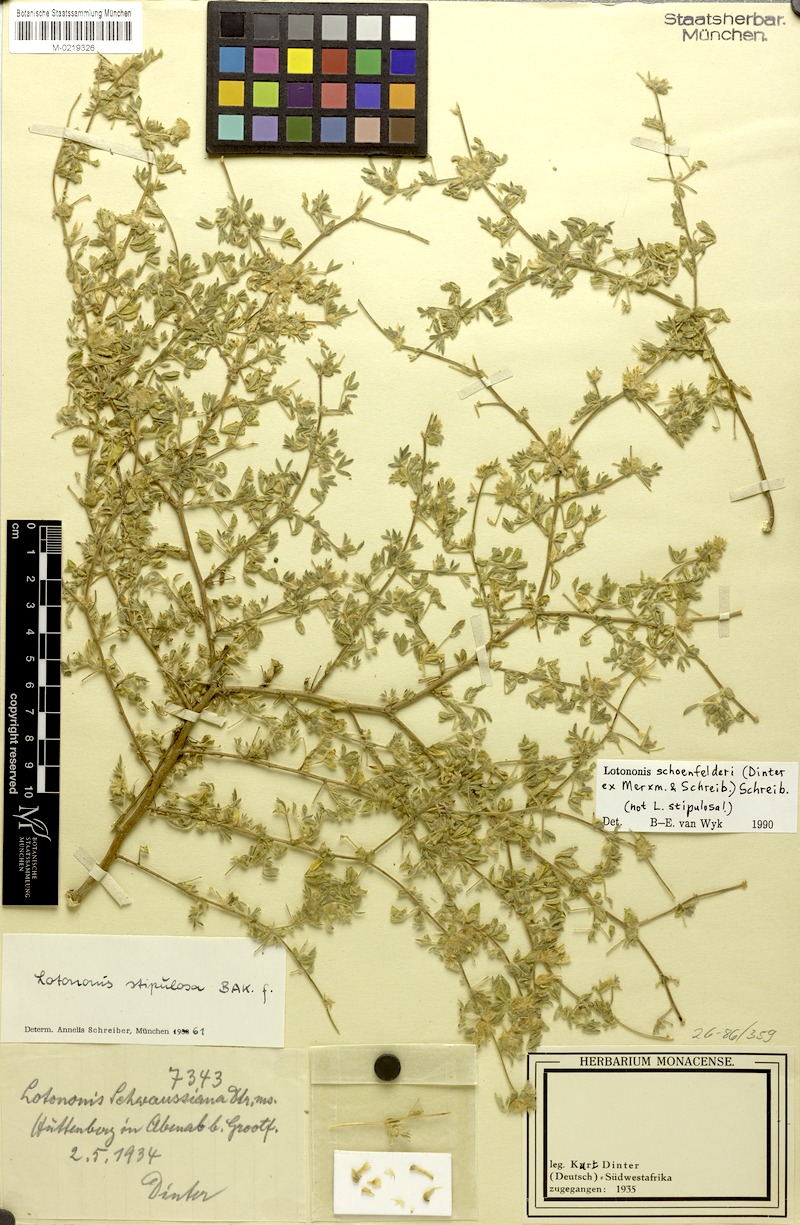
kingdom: Plantae
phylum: Tracheophyta
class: Magnoliopsida
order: Fabales
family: Fabaceae
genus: Leobordea
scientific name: Leobordea schoenfelderi
